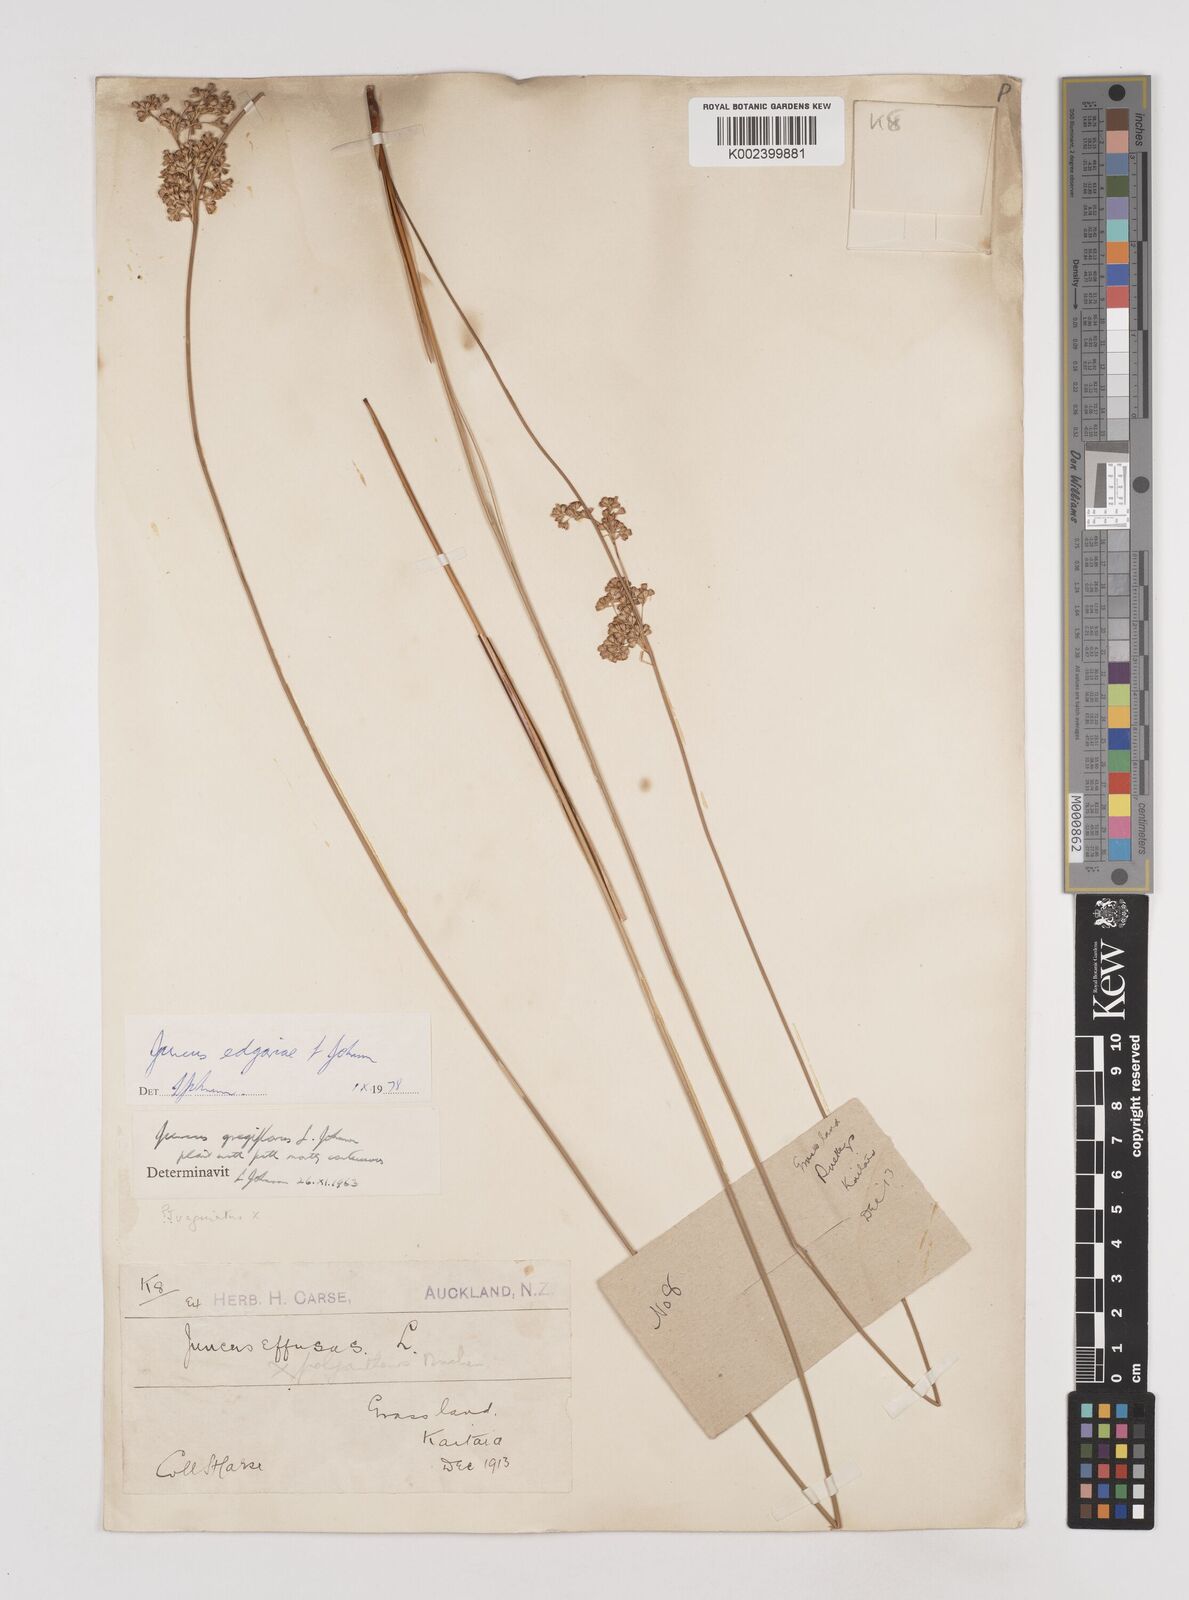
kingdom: Plantae
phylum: Tracheophyta
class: Liliopsida
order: Poales
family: Juncaceae
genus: Juncus
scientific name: Juncus gregiflorus
